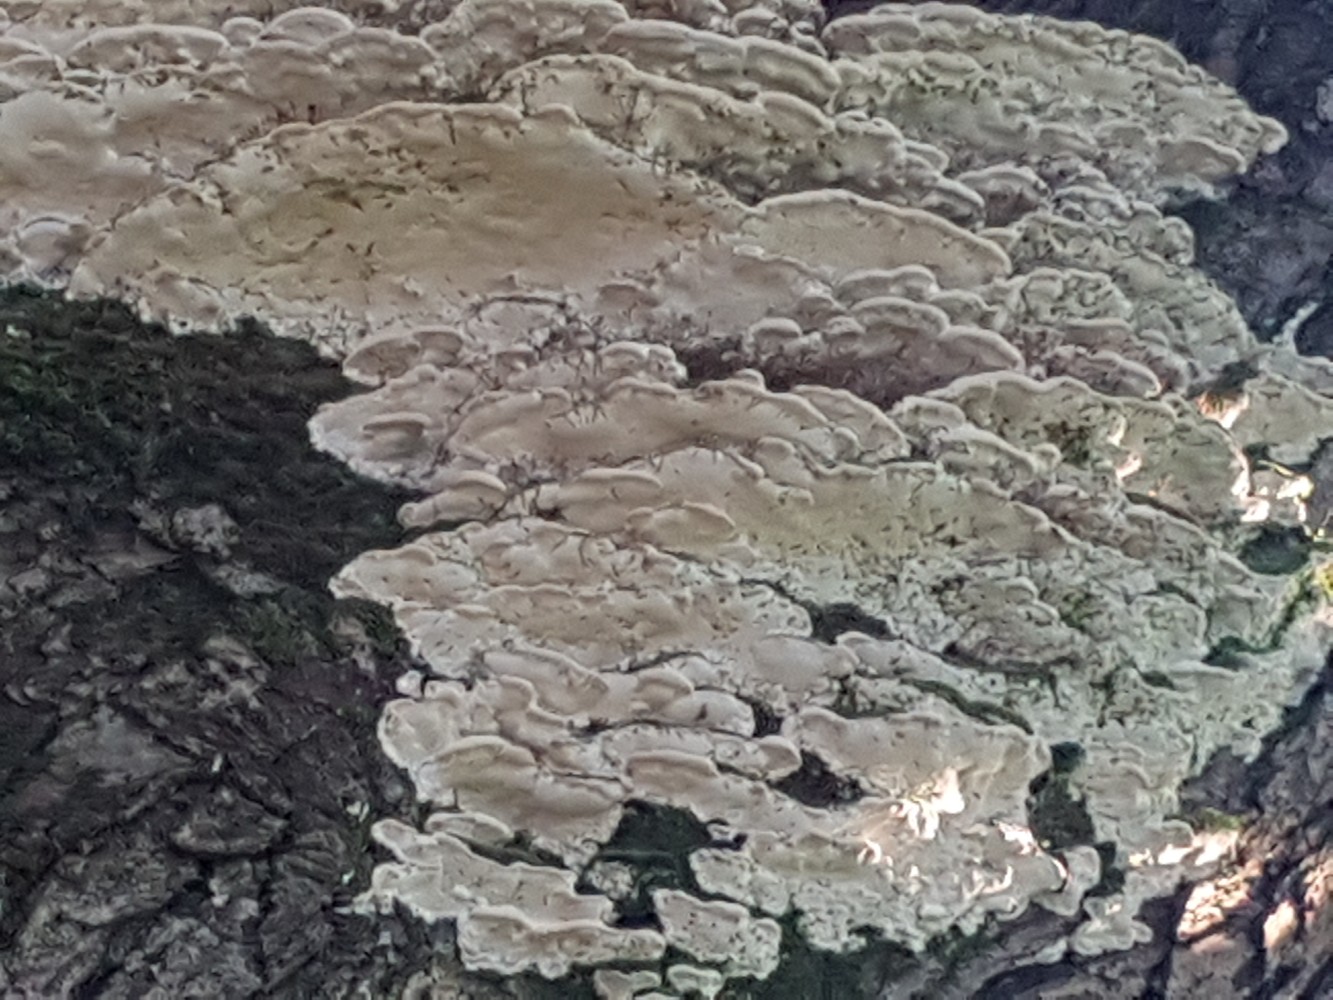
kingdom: Fungi
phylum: Basidiomycota
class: Agaricomycetes
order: Hymenochaetales
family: Oxyporaceae
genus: Oxyporus
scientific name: Oxyporus populinus
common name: sammenvokset trylleporesvamp
